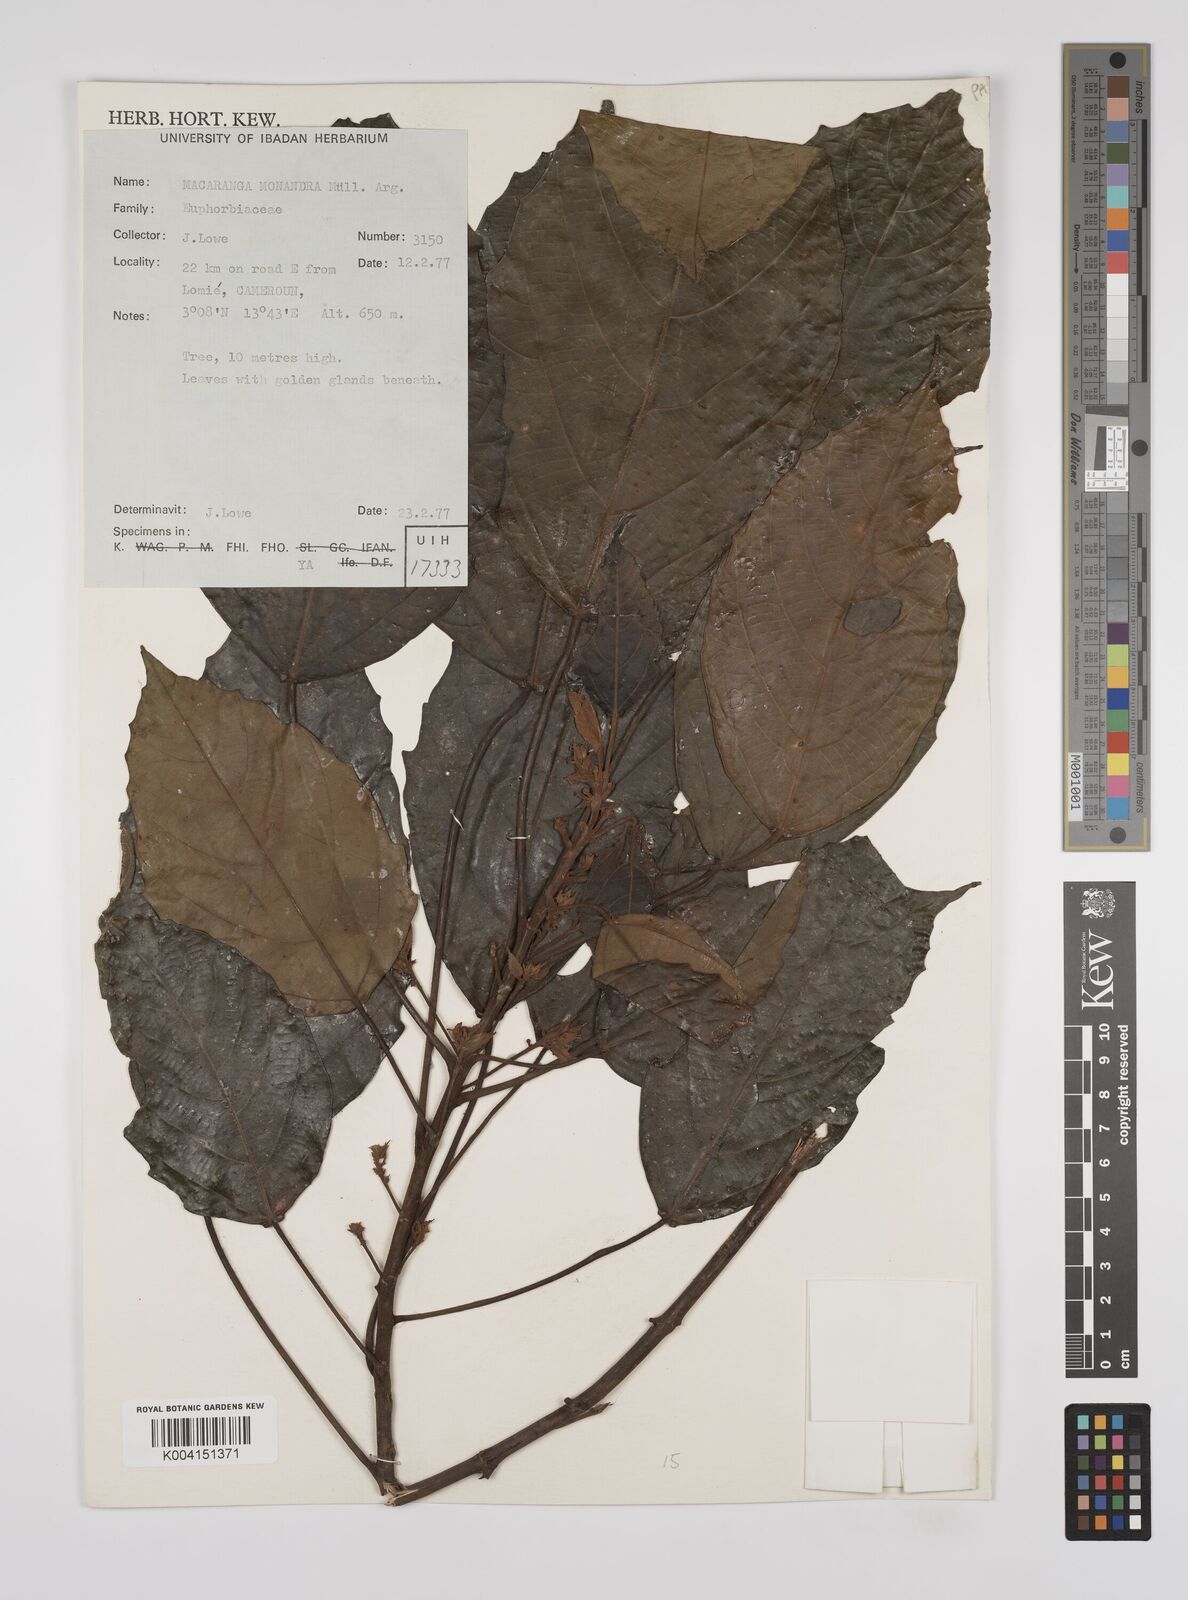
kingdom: Plantae
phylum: Tracheophyta
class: Magnoliopsida
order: Malpighiales
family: Euphorbiaceae
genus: Macaranga
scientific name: Macaranga monandra
